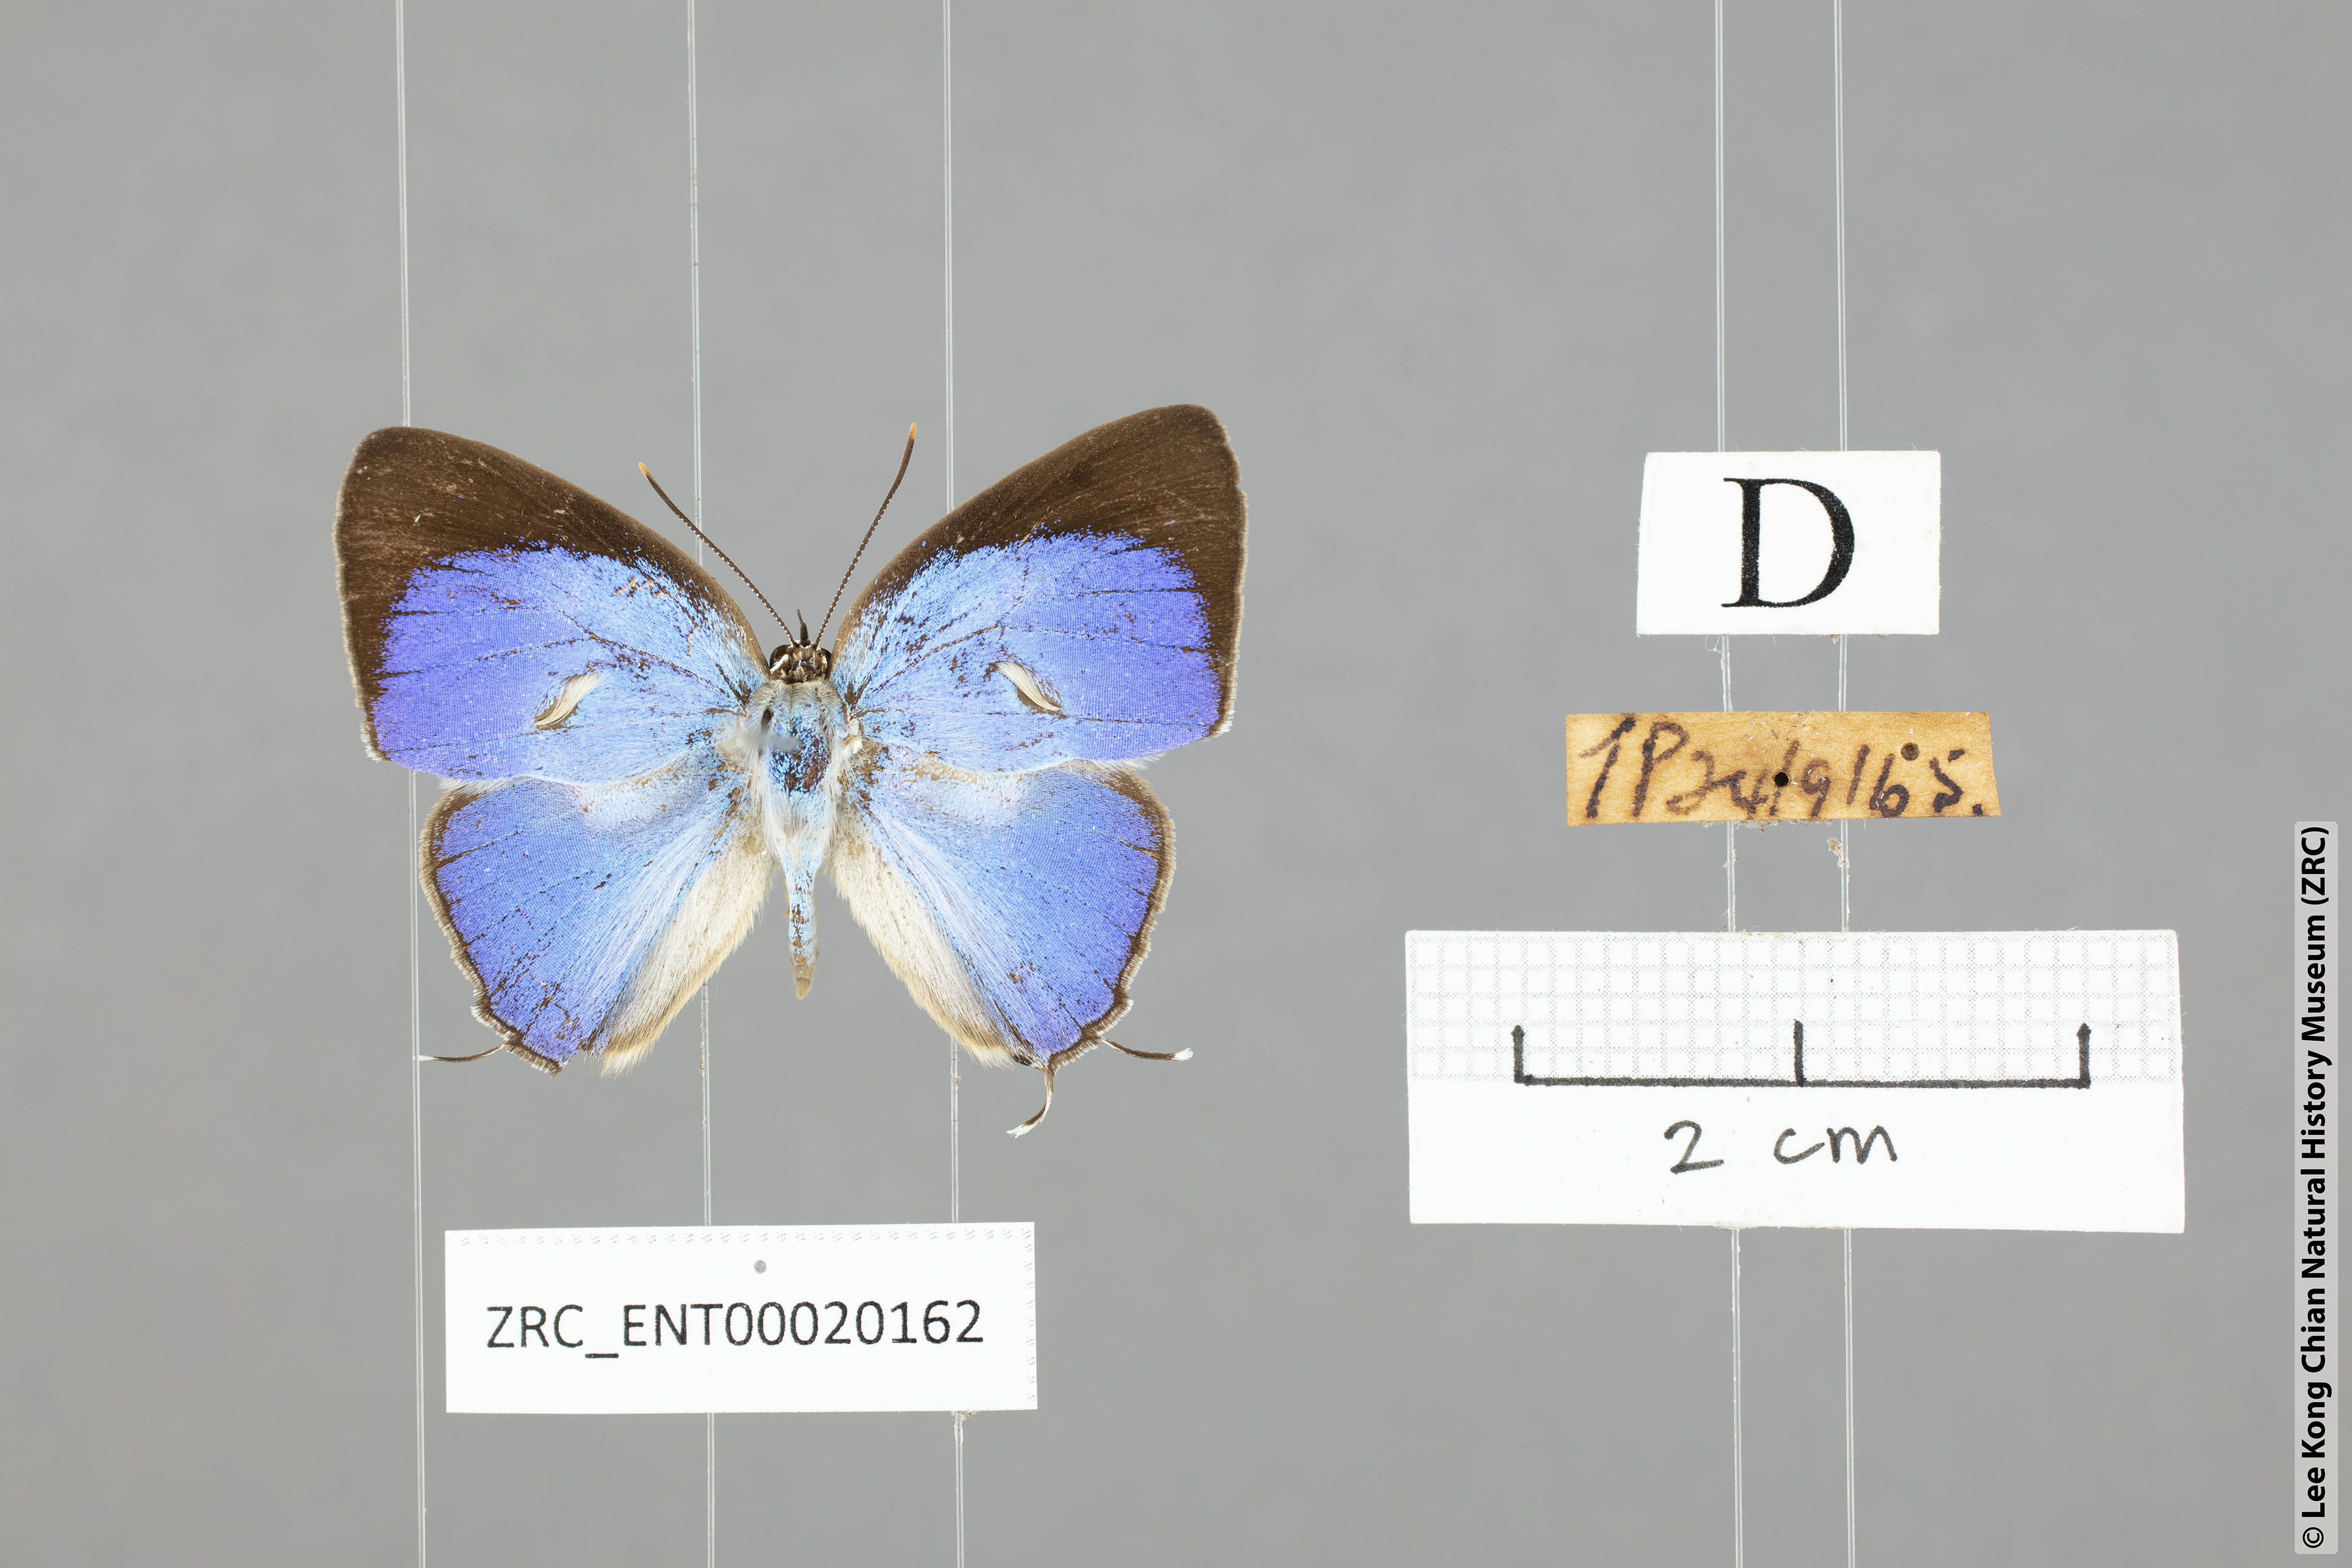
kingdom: Animalia
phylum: Arthropoda
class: Insecta
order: Lepidoptera
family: Lycaenidae
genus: Dacalana
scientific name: Dacalana vidura
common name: Medium-branded royal
